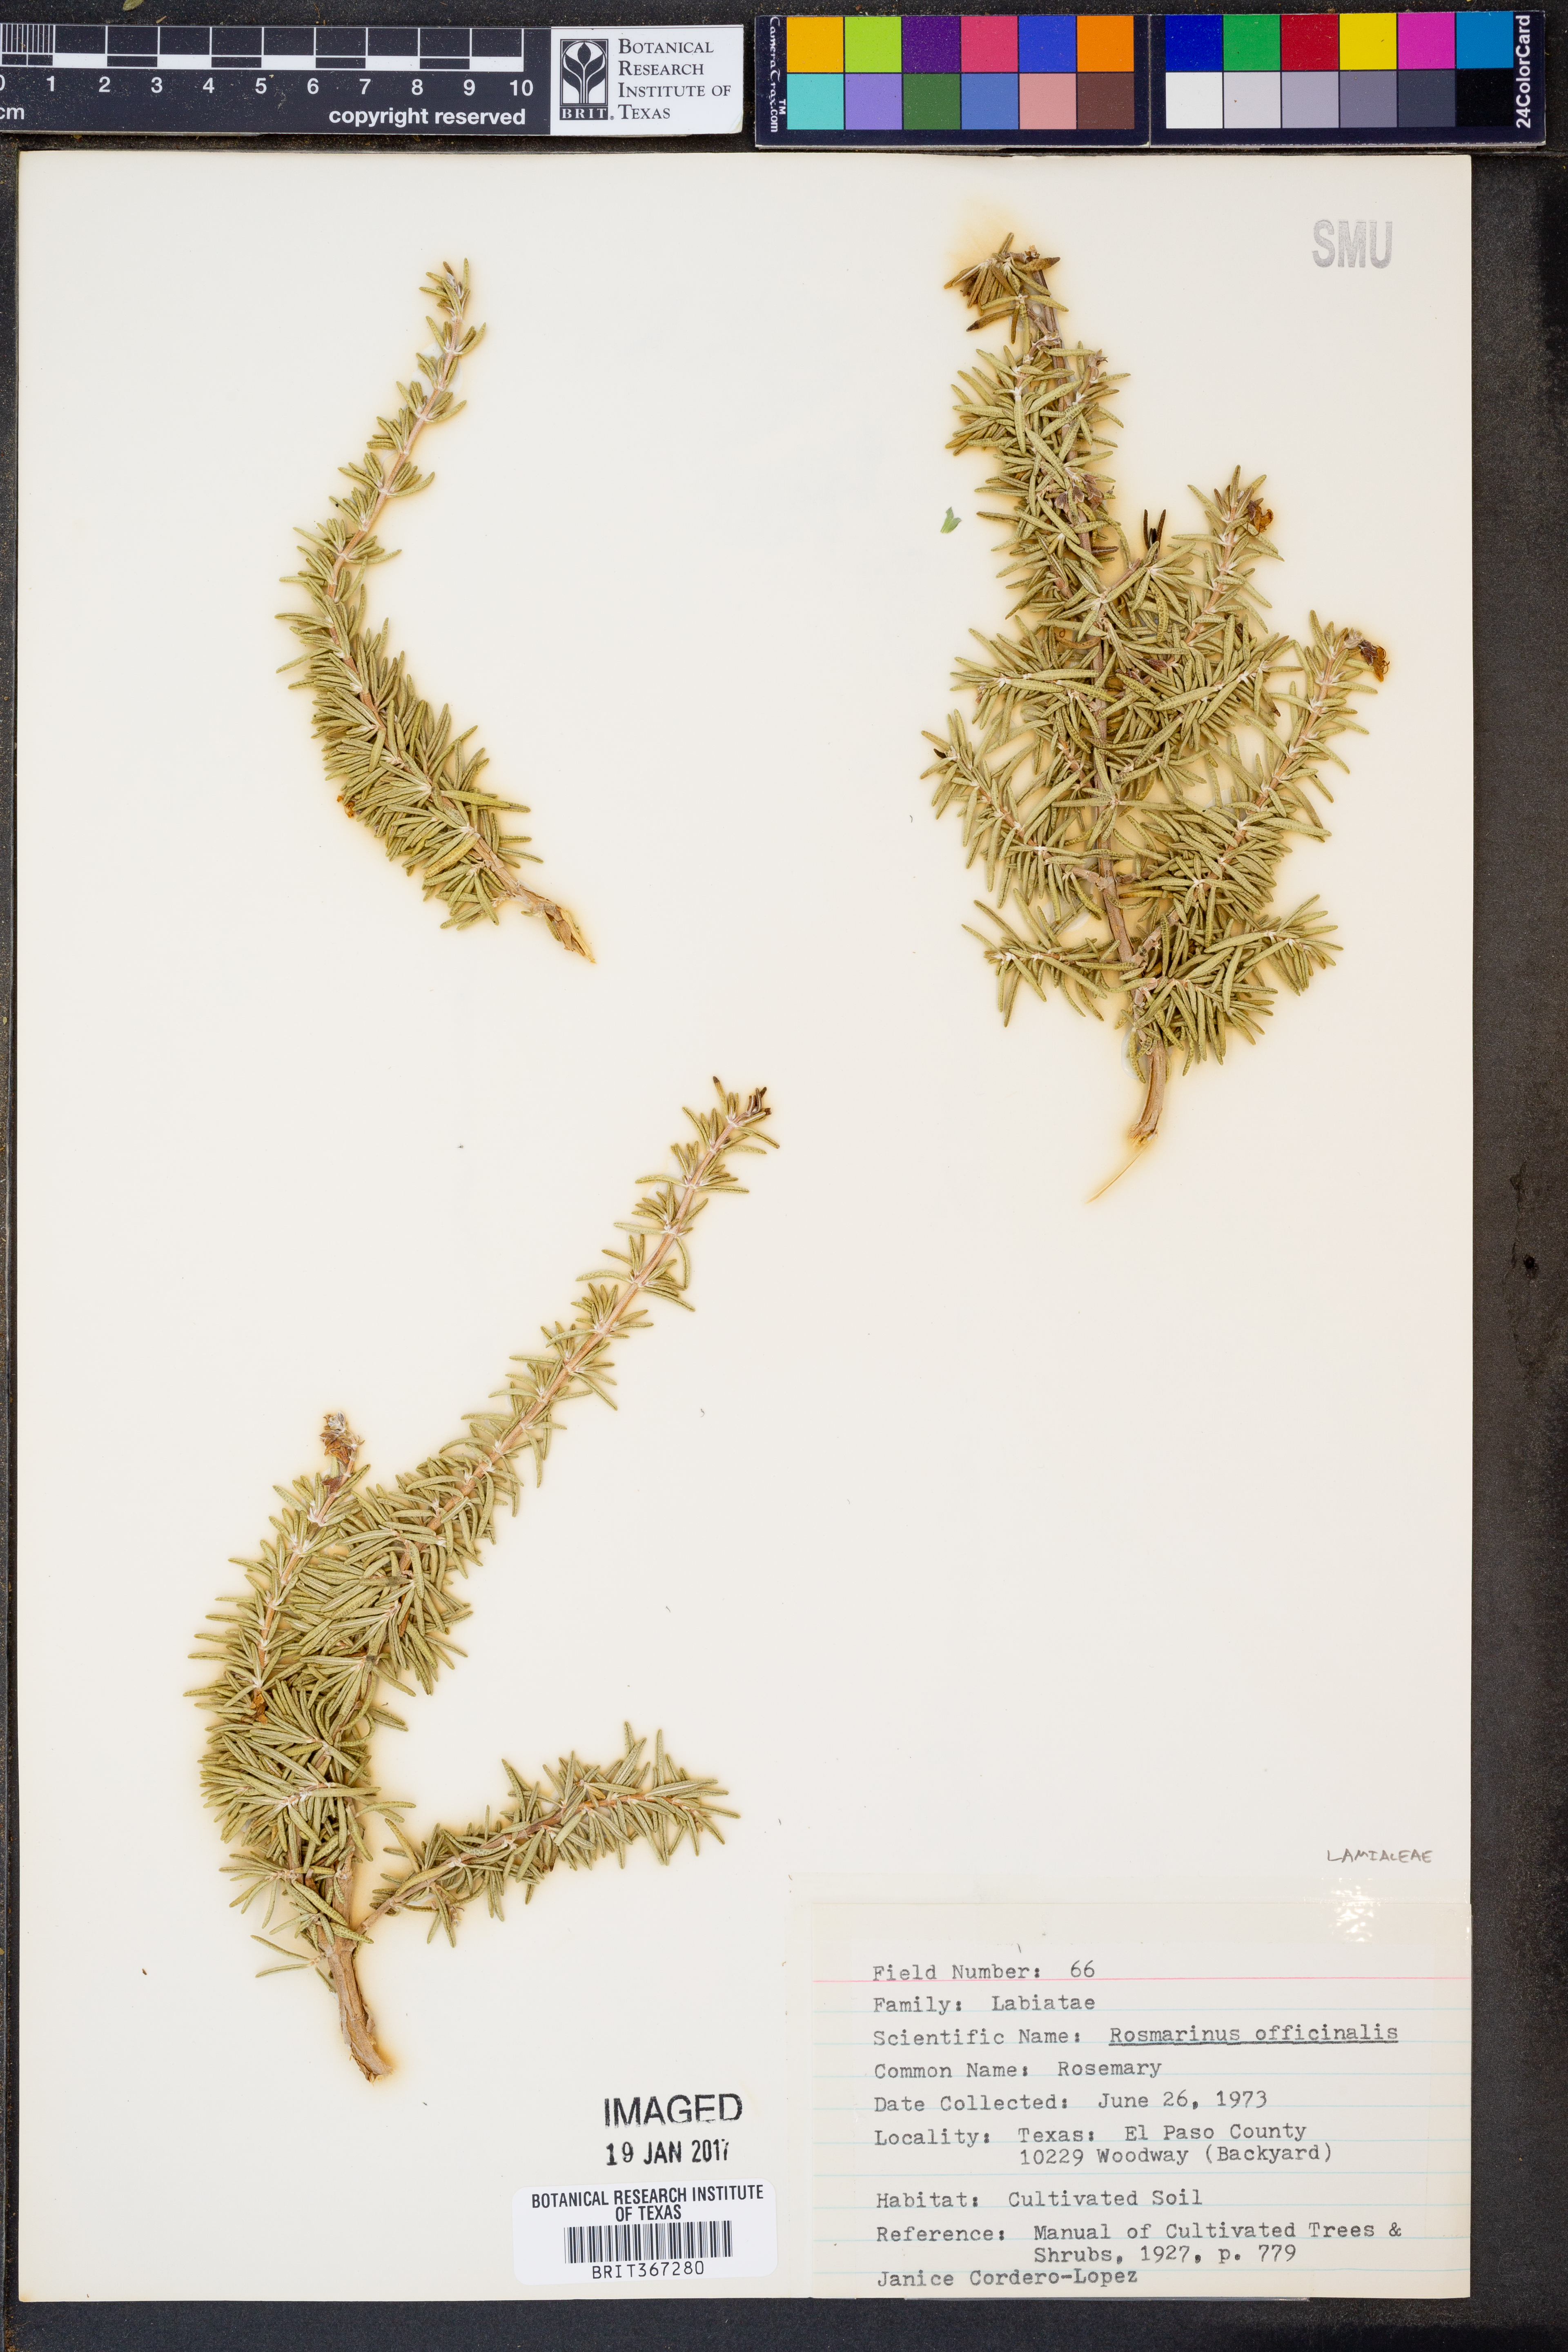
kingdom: Plantae
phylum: Tracheophyta
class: Magnoliopsida
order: Lamiales
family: Lamiaceae
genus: Salvia
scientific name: Salvia rosmarinus
